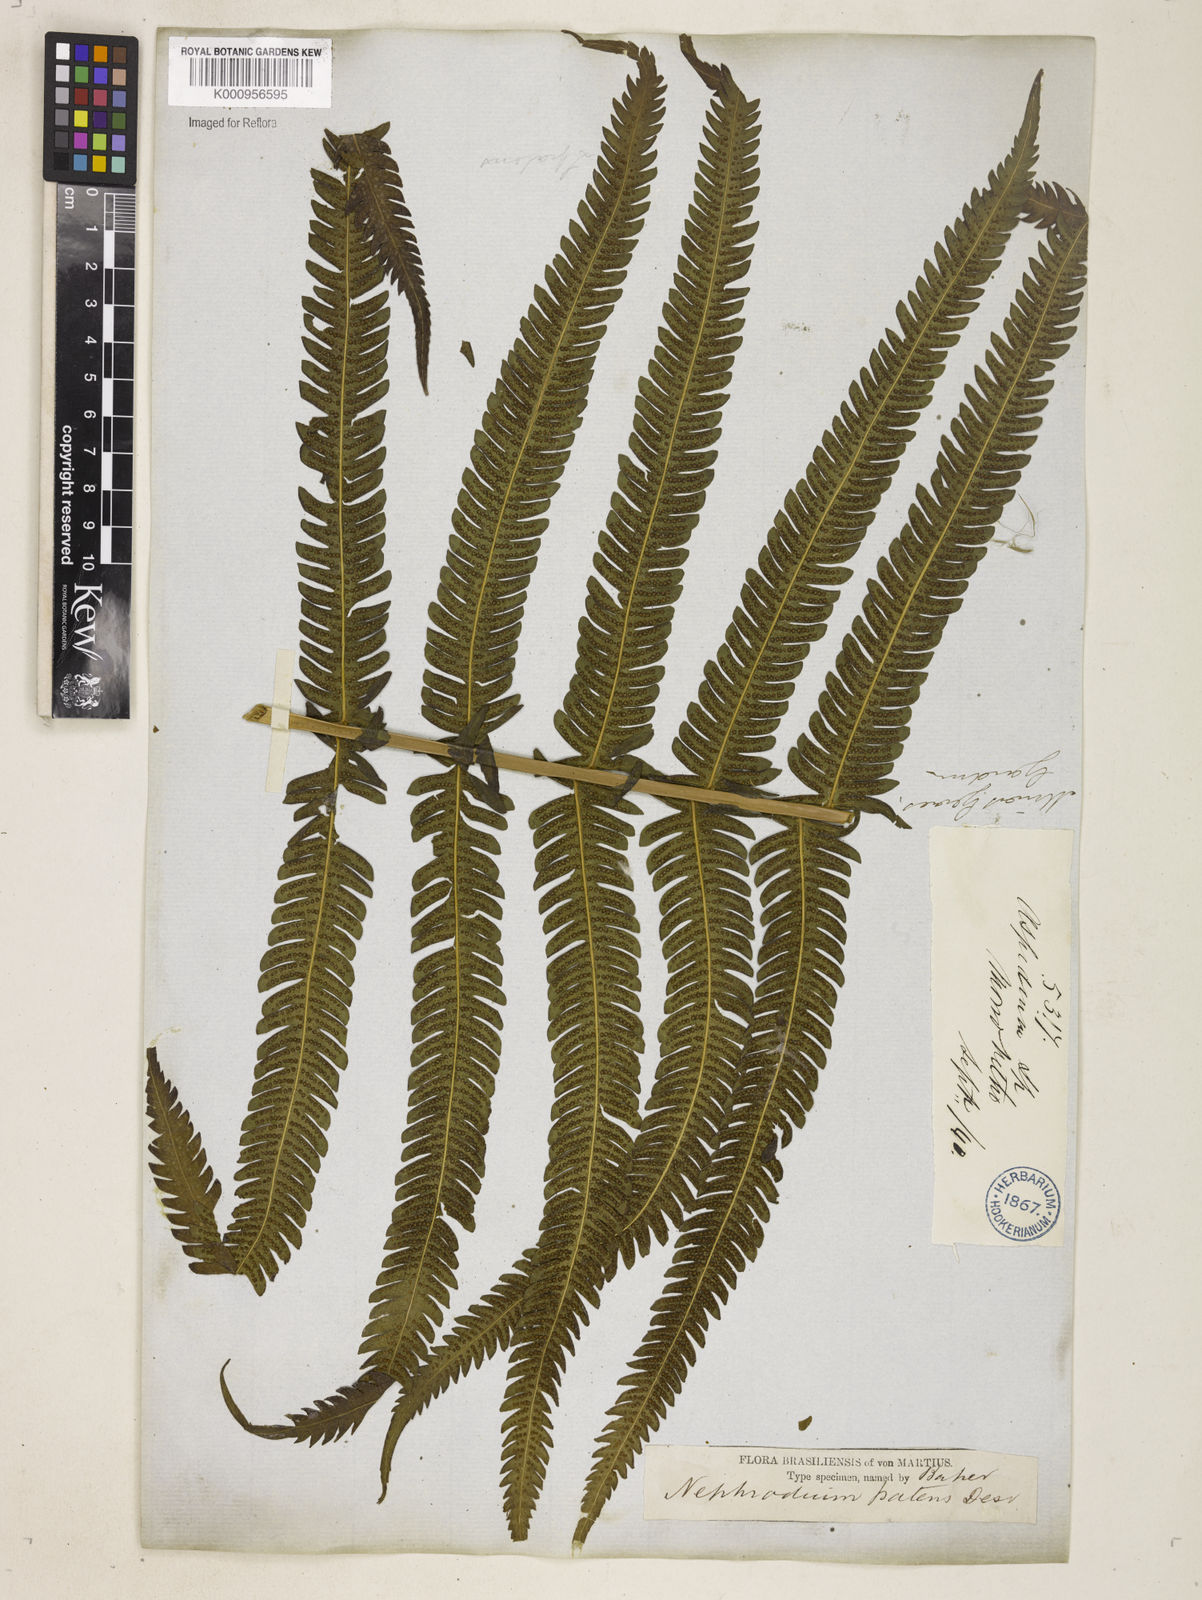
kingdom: Plantae
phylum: Tracheophyta
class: Polypodiopsida
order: Polypodiales
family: Thelypteridaceae
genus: Pelazoneuron
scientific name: Pelazoneuron patens
